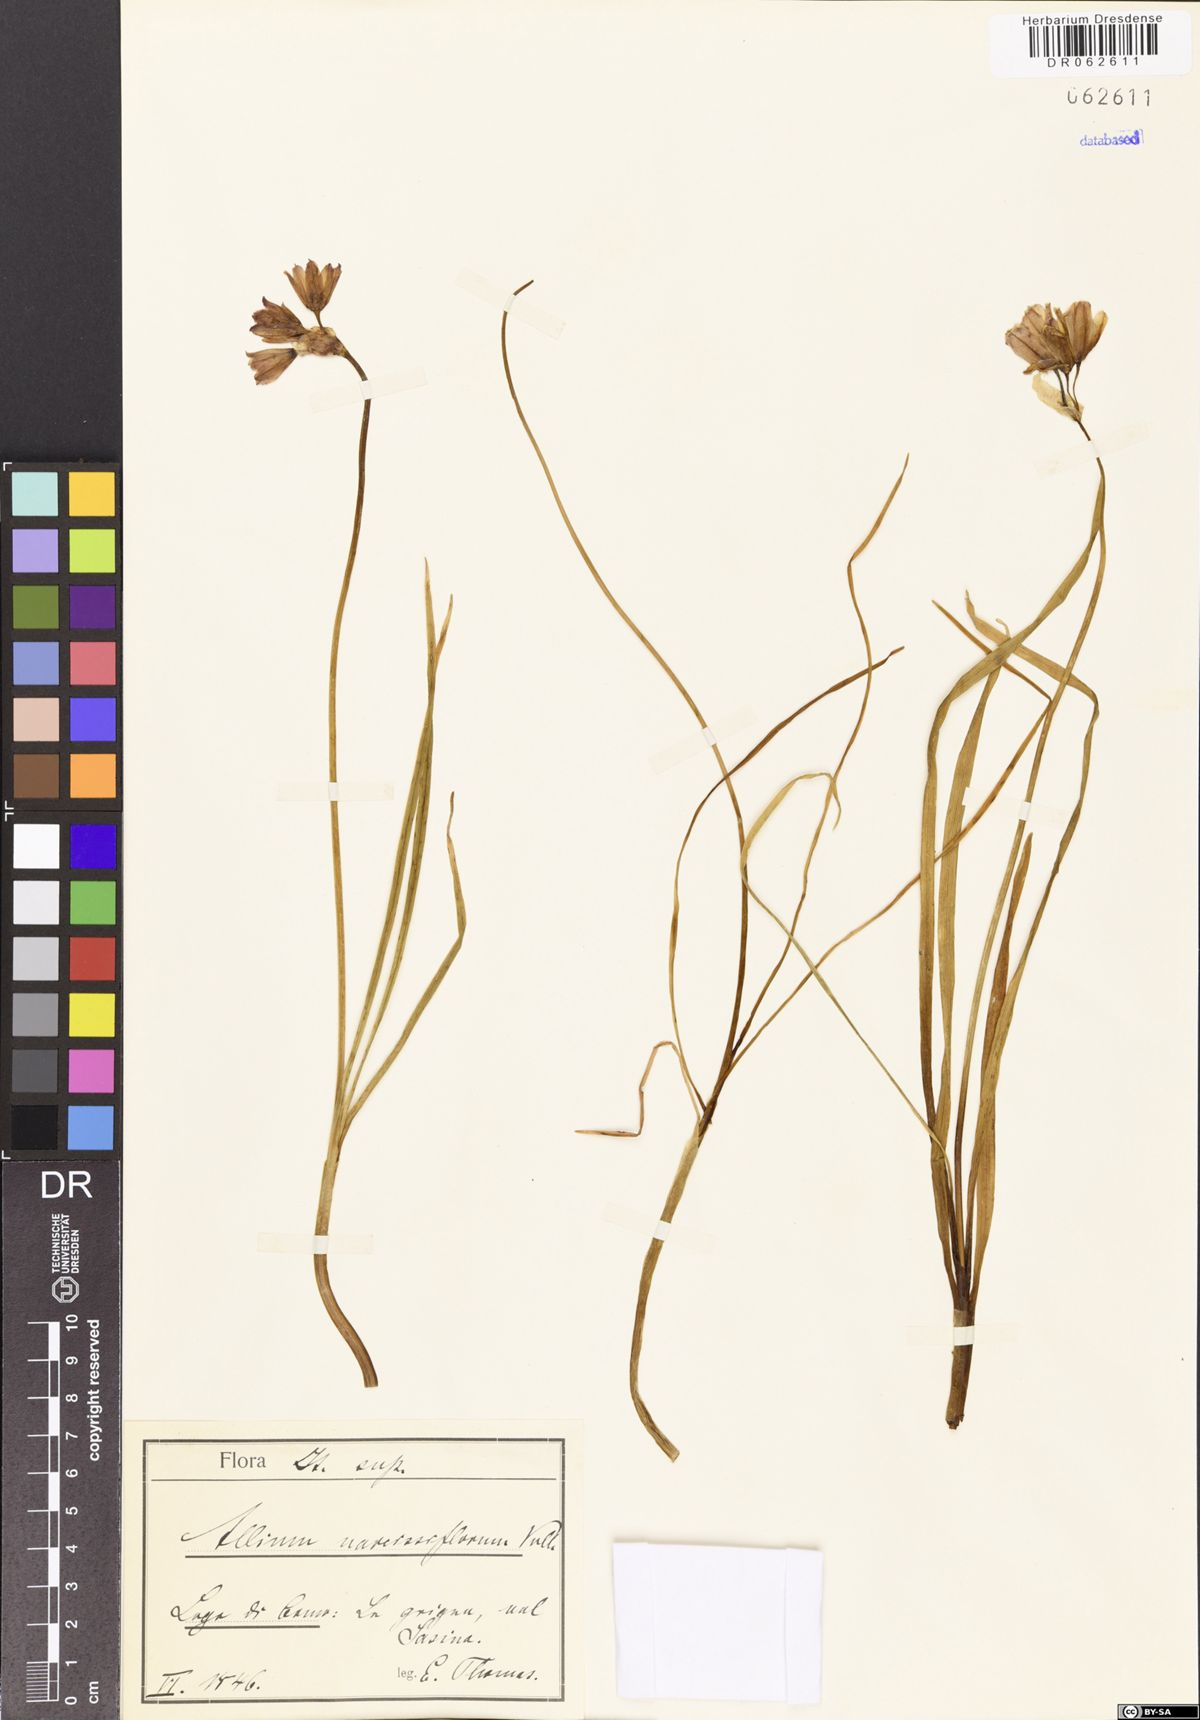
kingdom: Plantae
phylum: Tracheophyta
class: Liliopsida
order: Asparagales
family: Amaryllidaceae
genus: Allium
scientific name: Allium narcissiflorum
